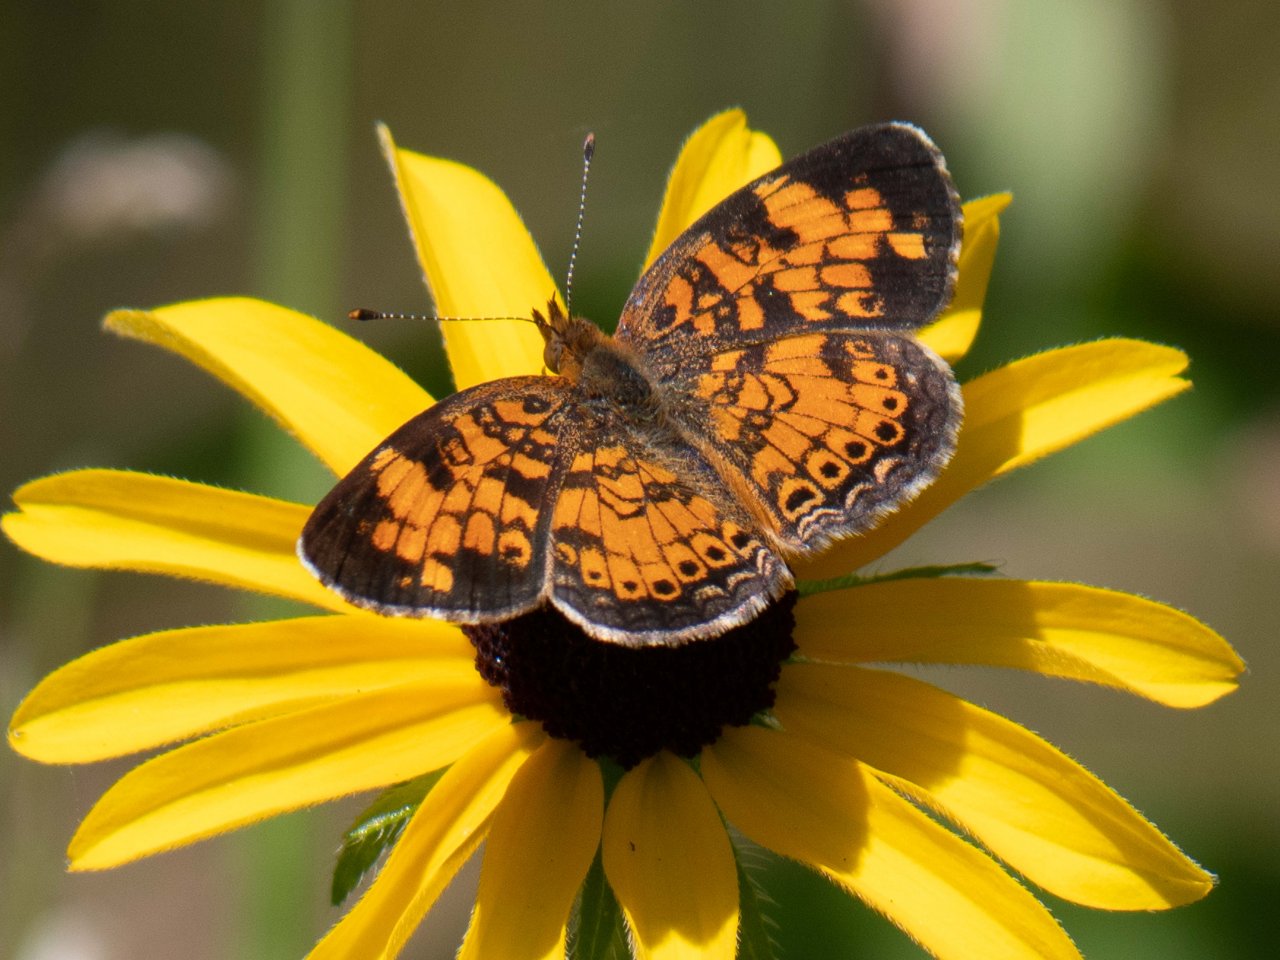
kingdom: Animalia
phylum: Arthropoda
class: Insecta
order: Lepidoptera
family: Nymphalidae
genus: Phyciodes
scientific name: Phyciodes tharos
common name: Pearl Crescent
